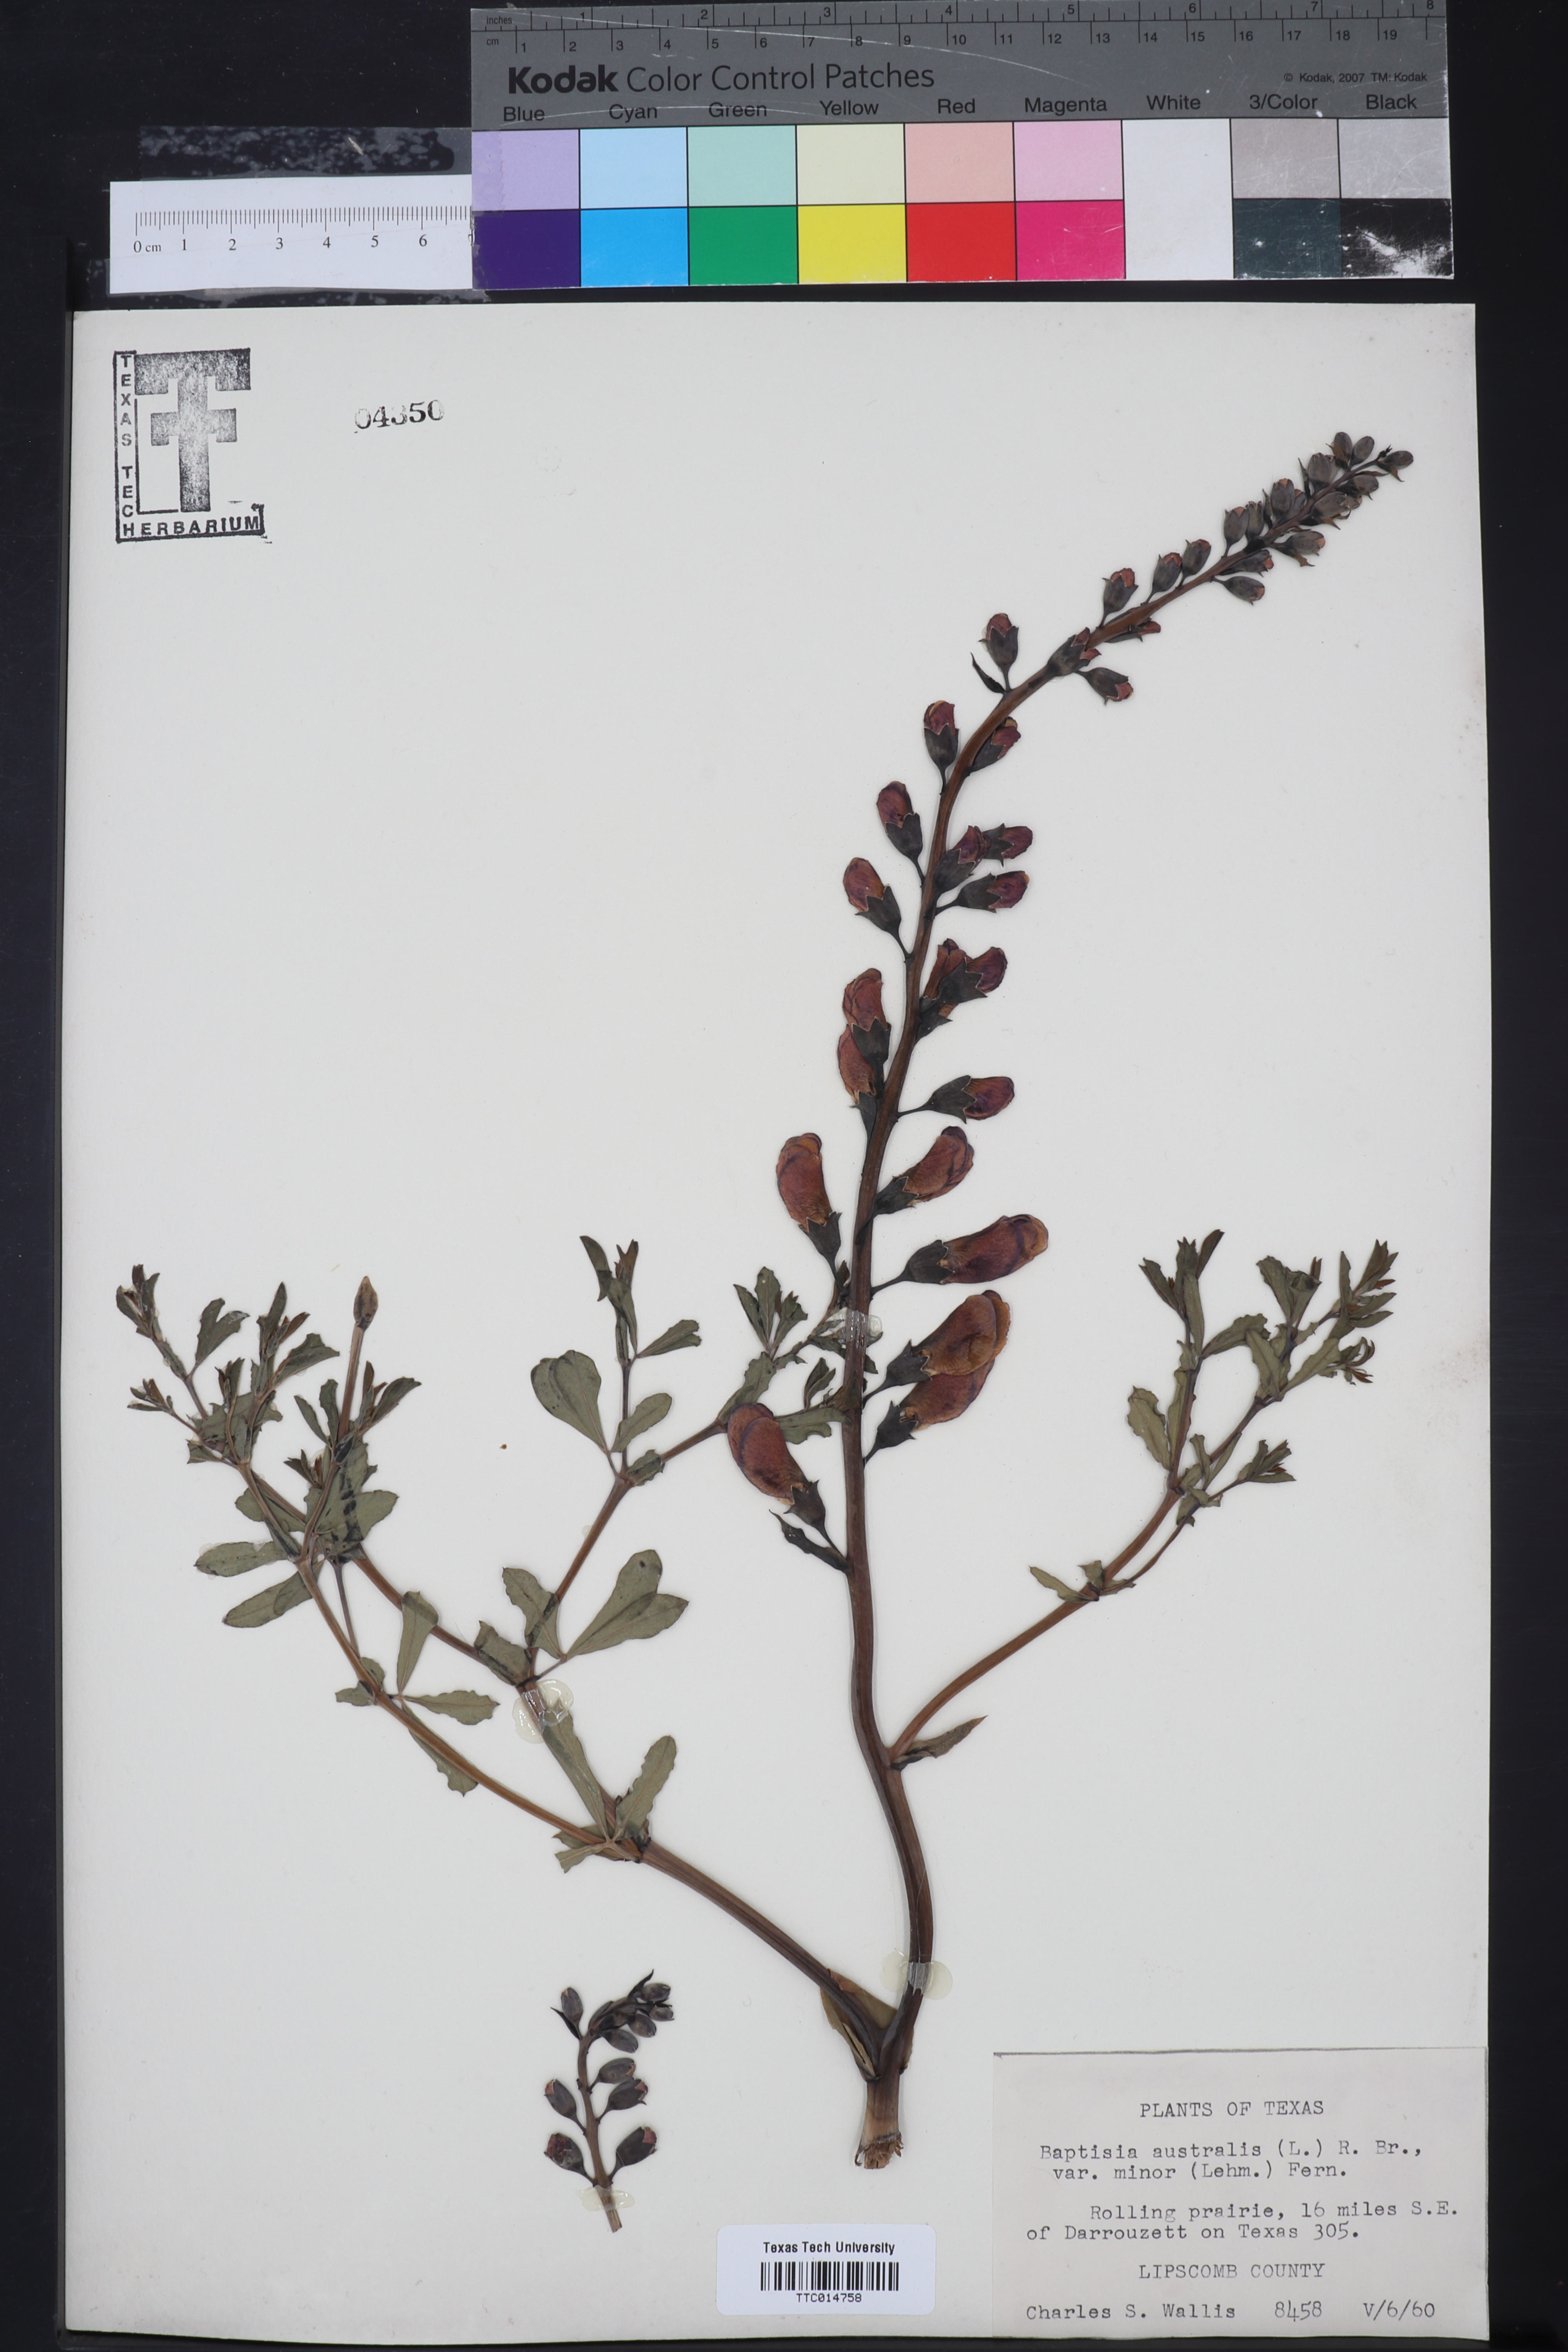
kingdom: Plantae
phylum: Tracheophyta
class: Magnoliopsida
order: Fabales
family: Fabaceae
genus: Baptisia
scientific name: Baptisia australis
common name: Blue false indigo
